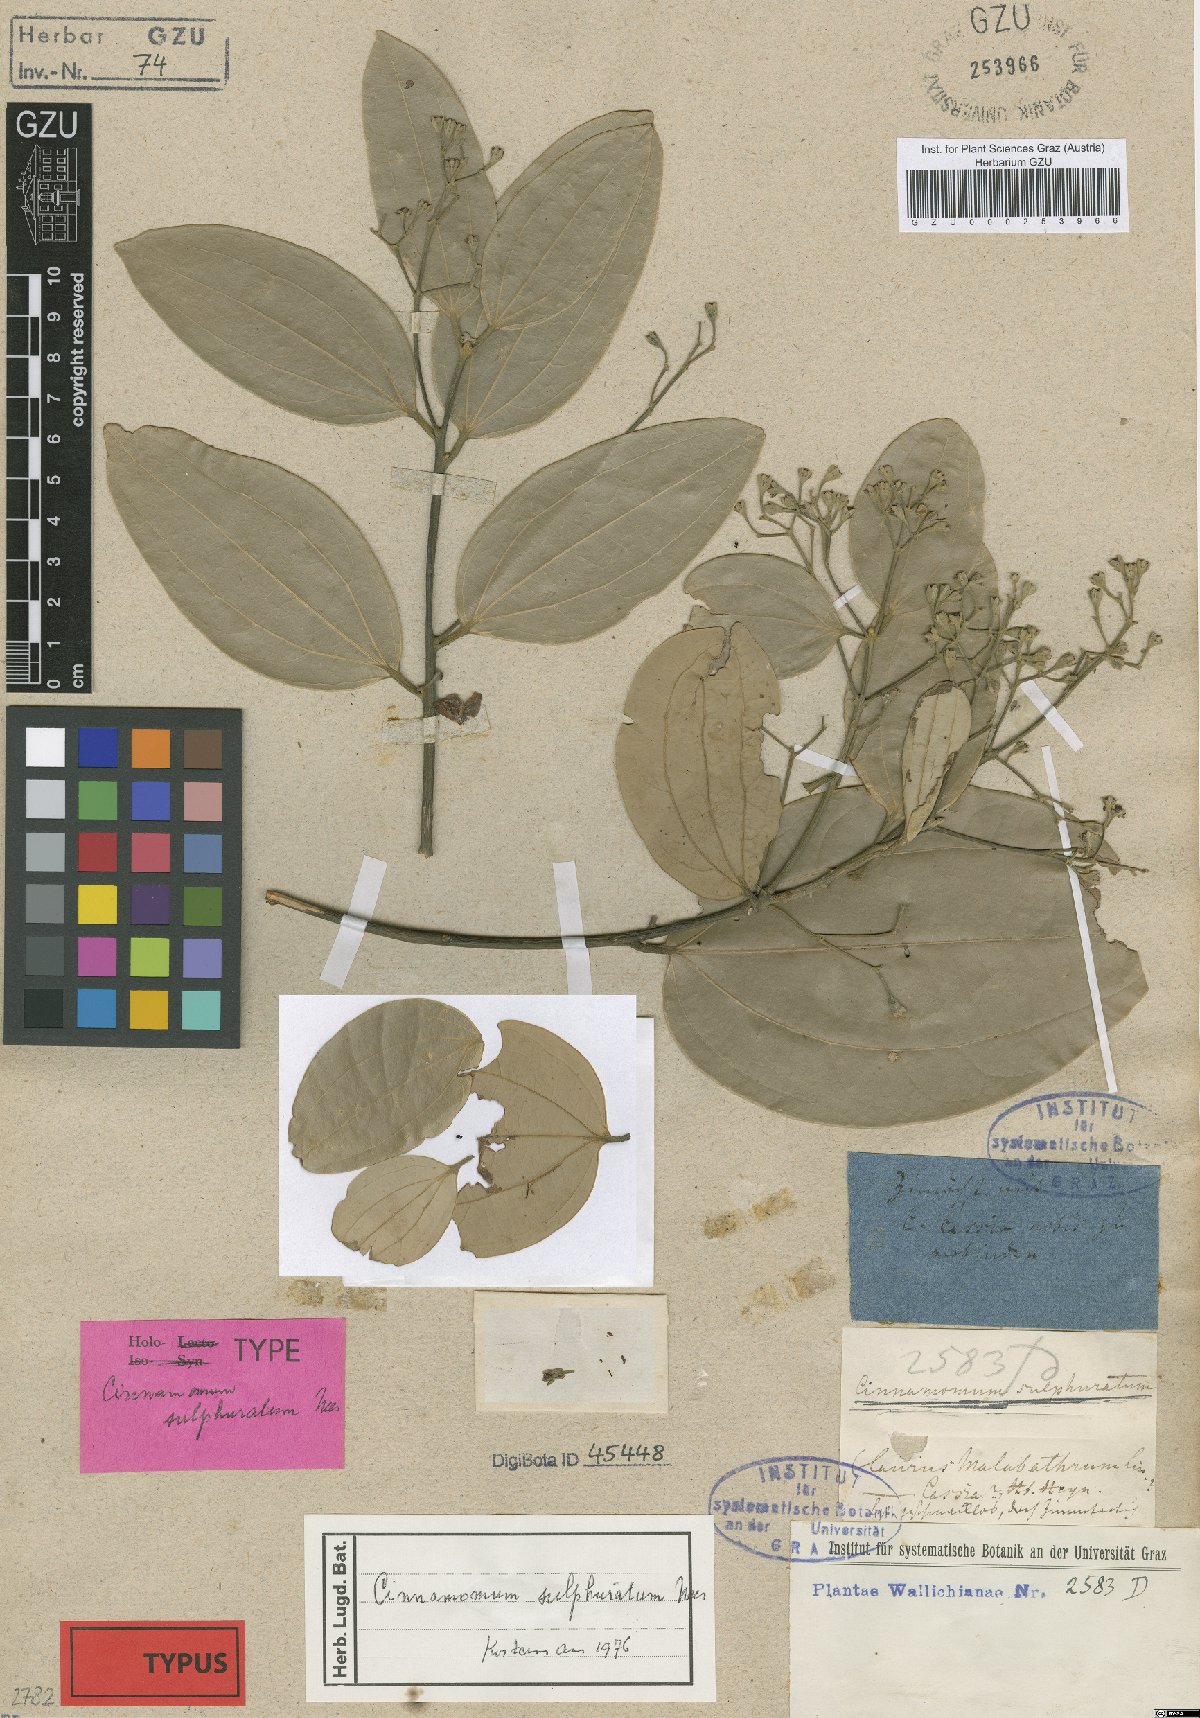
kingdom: Plantae
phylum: Tracheophyta
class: Magnoliopsida
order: Laurales
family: Lauraceae
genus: Cinnamomum
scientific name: Cinnamomum sulphuratum
